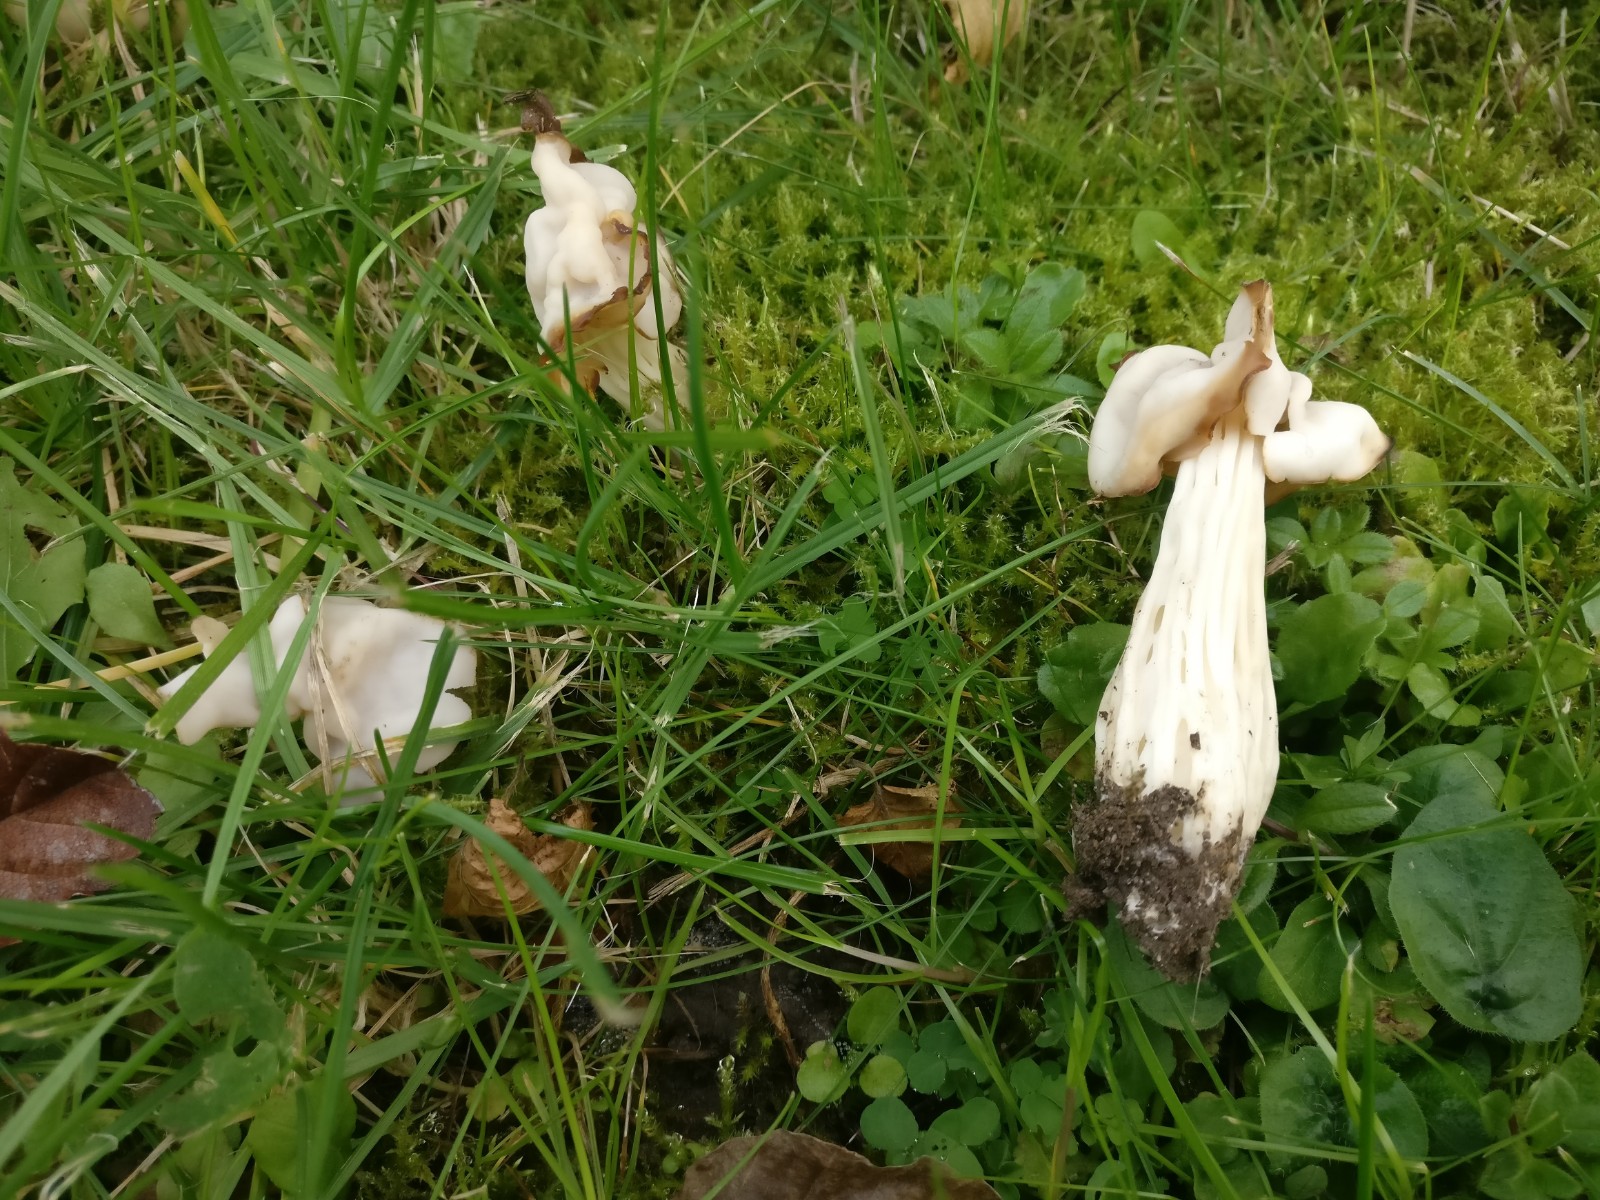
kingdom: Fungi
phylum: Ascomycota
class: Pezizomycetes
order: Pezizales
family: Helvellaceae
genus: Helvella
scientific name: Helvella crispa
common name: kruset foldhat
